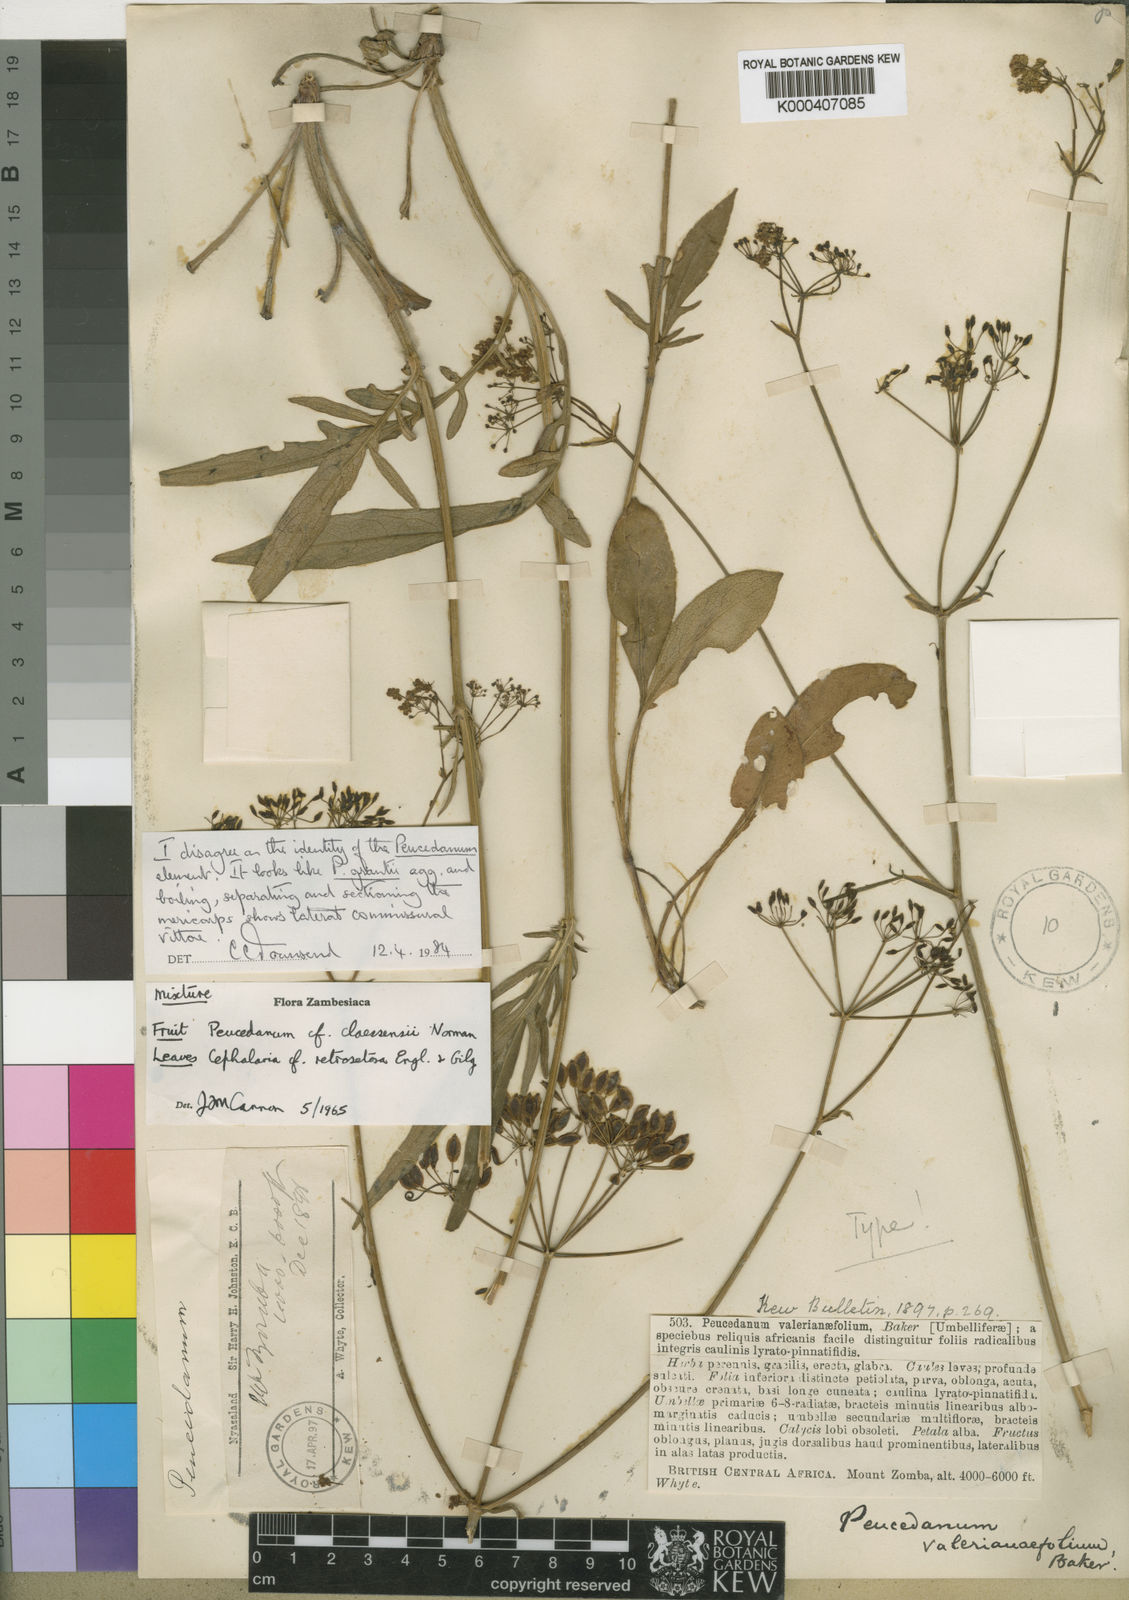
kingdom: Plantae
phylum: Tracheophyta
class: Magnoliopsida
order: Apiales
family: Apiaceae
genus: Peucedanum
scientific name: Peucedanum
